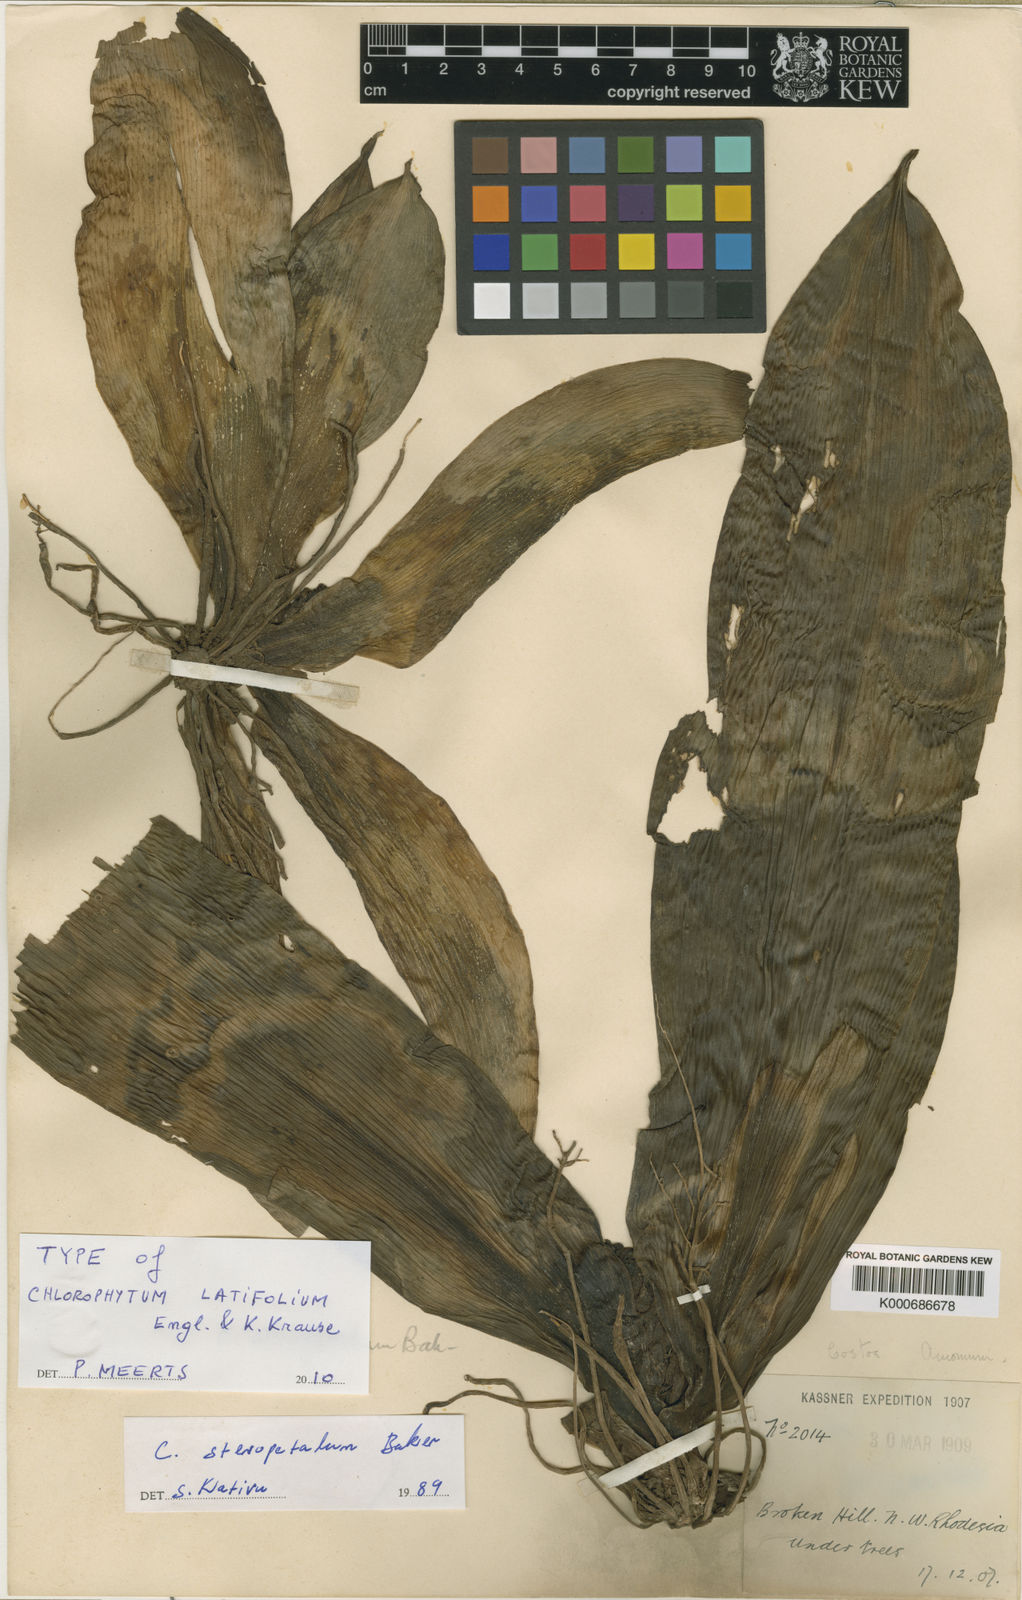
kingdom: Plantae
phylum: Tracheophyta
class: Liliopsida
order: Asparagales
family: Asparagaceae
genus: Chlorophytum
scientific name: Chlorophytum stenopetalum
